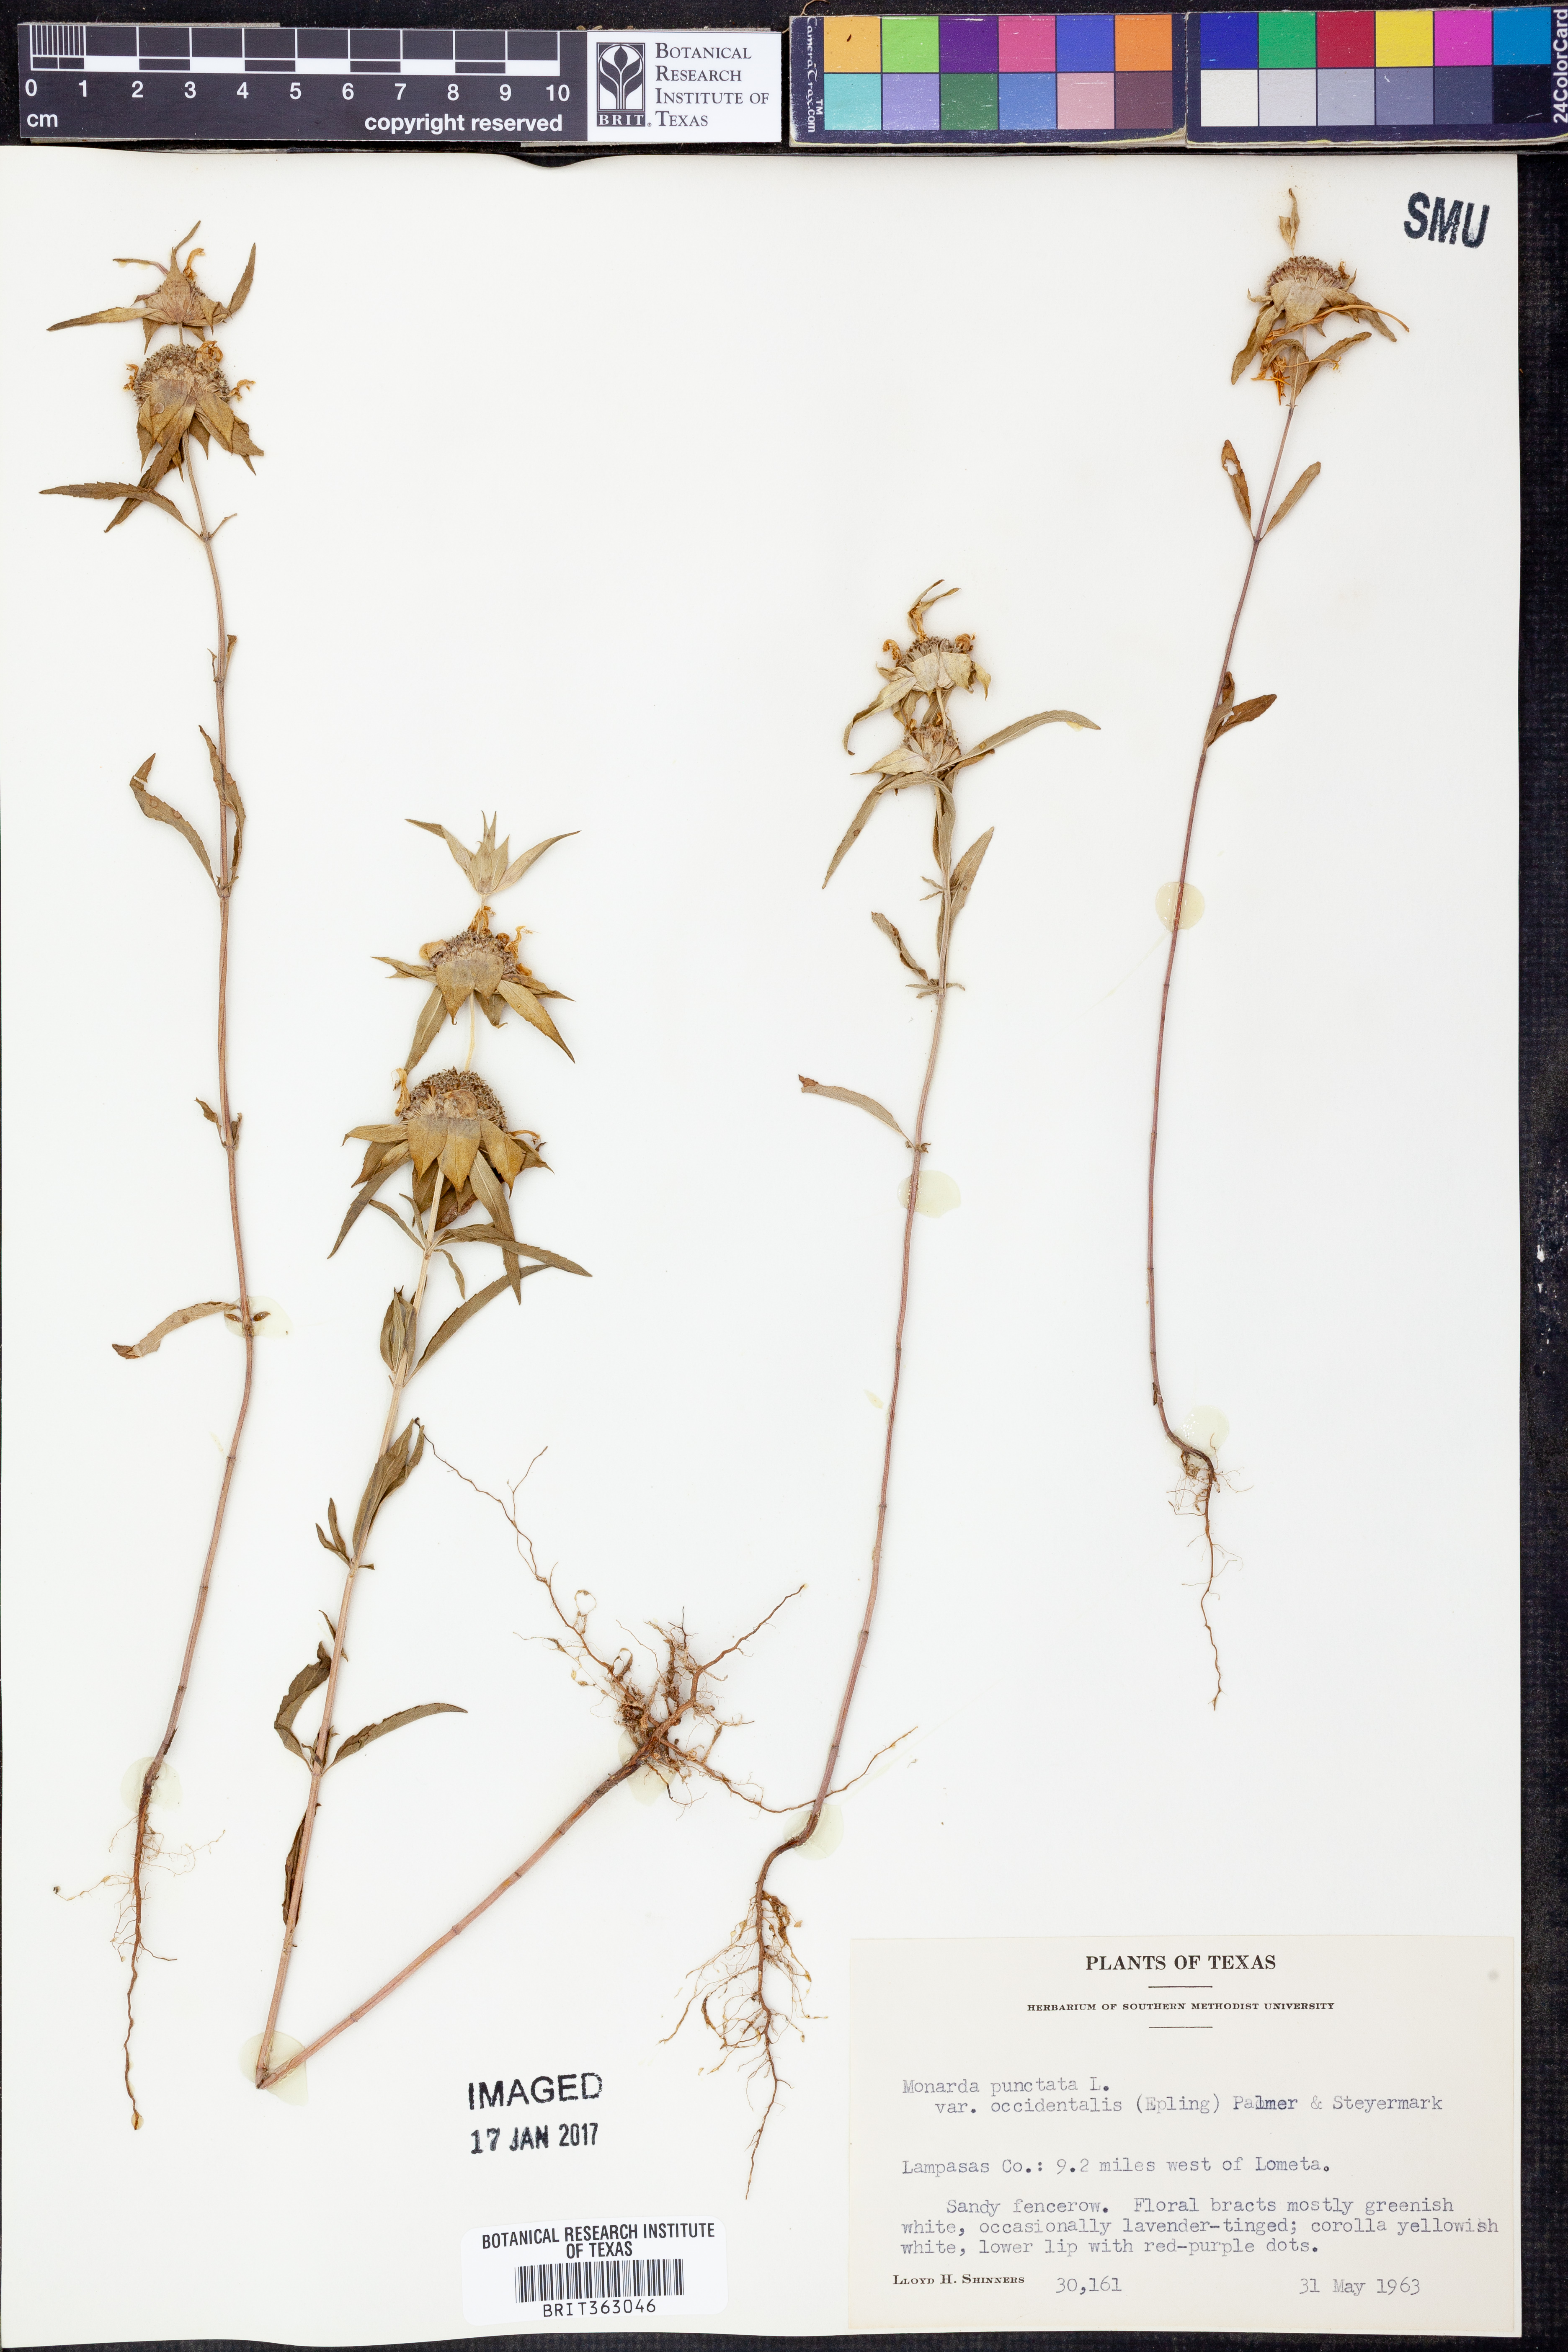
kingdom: Plantae
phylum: Tracheophyta
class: Magnoliopsida
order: Lamiales
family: Lamiaceae
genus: Monarda
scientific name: Monarda punctata
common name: Dotted monarda
